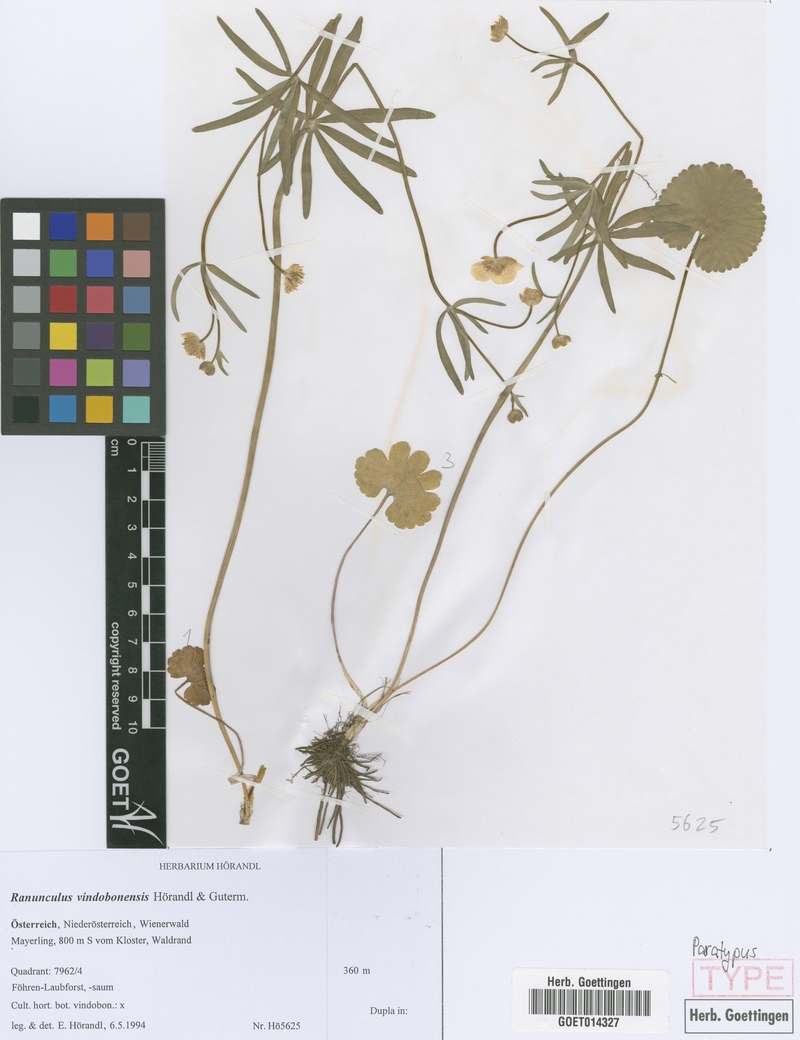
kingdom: Plantae
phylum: Tracheophyta
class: Magnoliopsida
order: Ranunculales
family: Ranunculaceae
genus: Ranunculus
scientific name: Ranunculus vindobonensis
